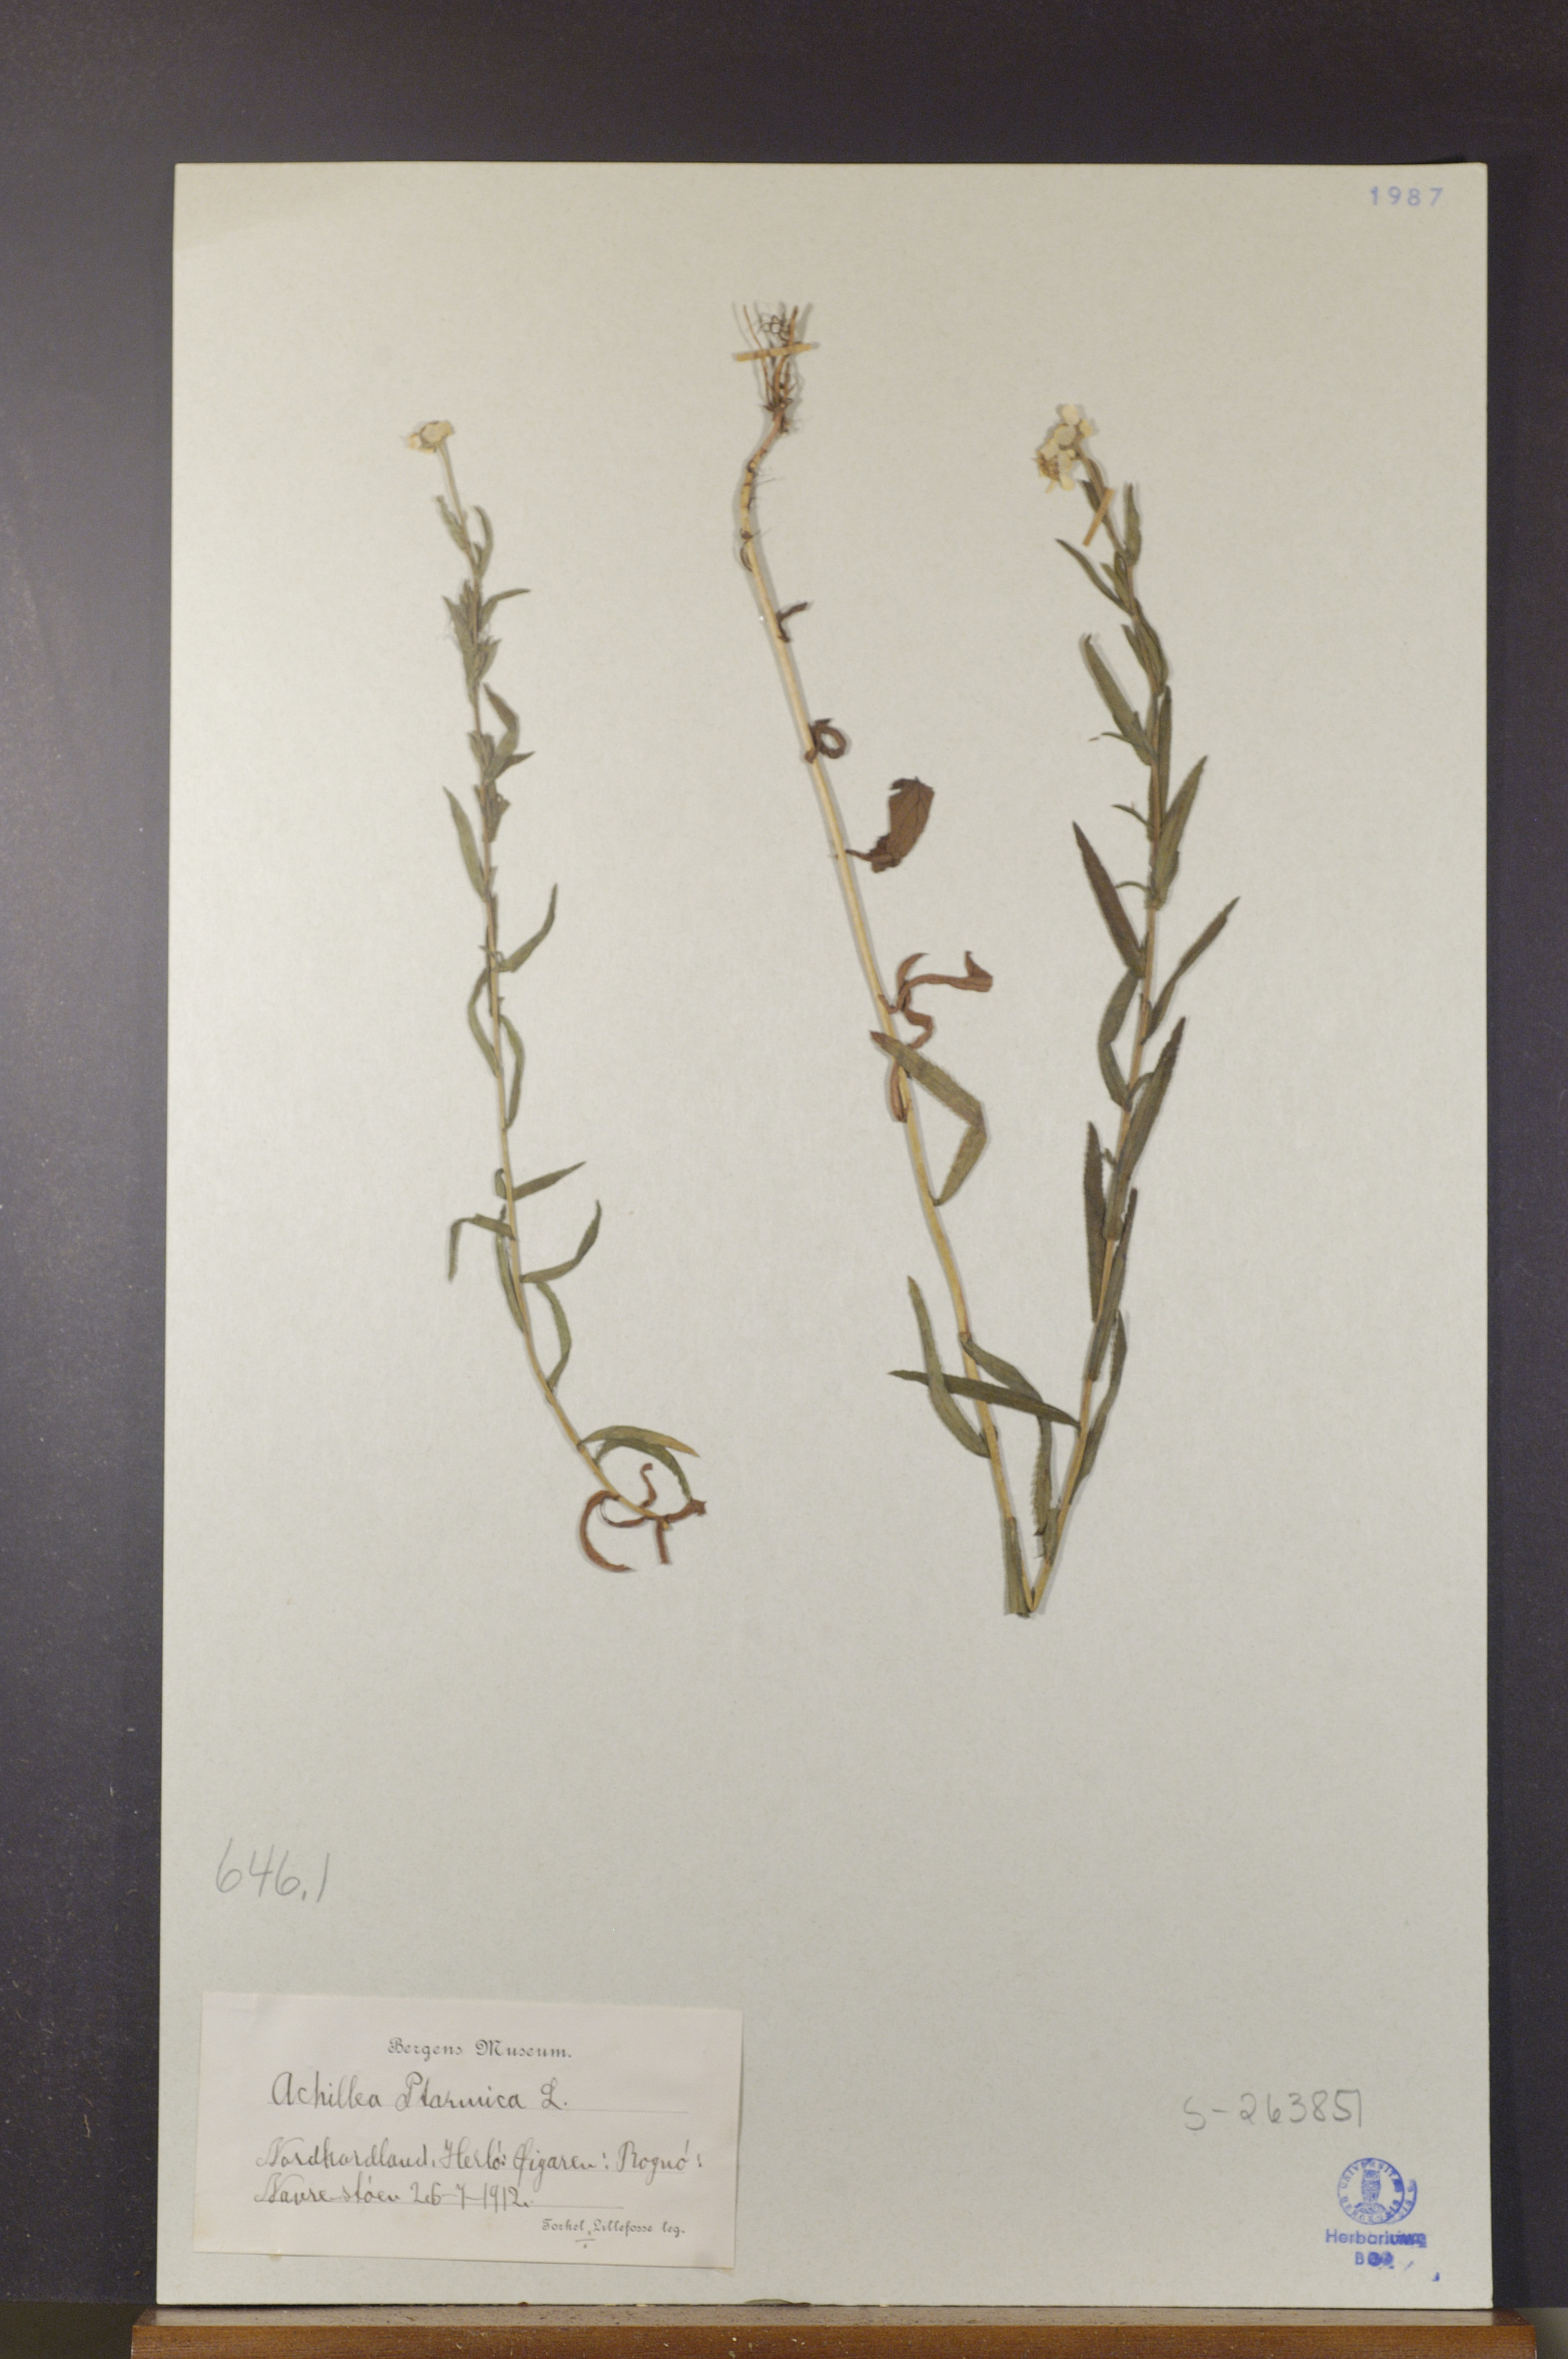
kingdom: Plantae
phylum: Tracheophyta
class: Magnoliopsida
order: Asterales
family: Asteraceae
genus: Achillea
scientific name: Achillea ptarmica
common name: Sneezeweed
